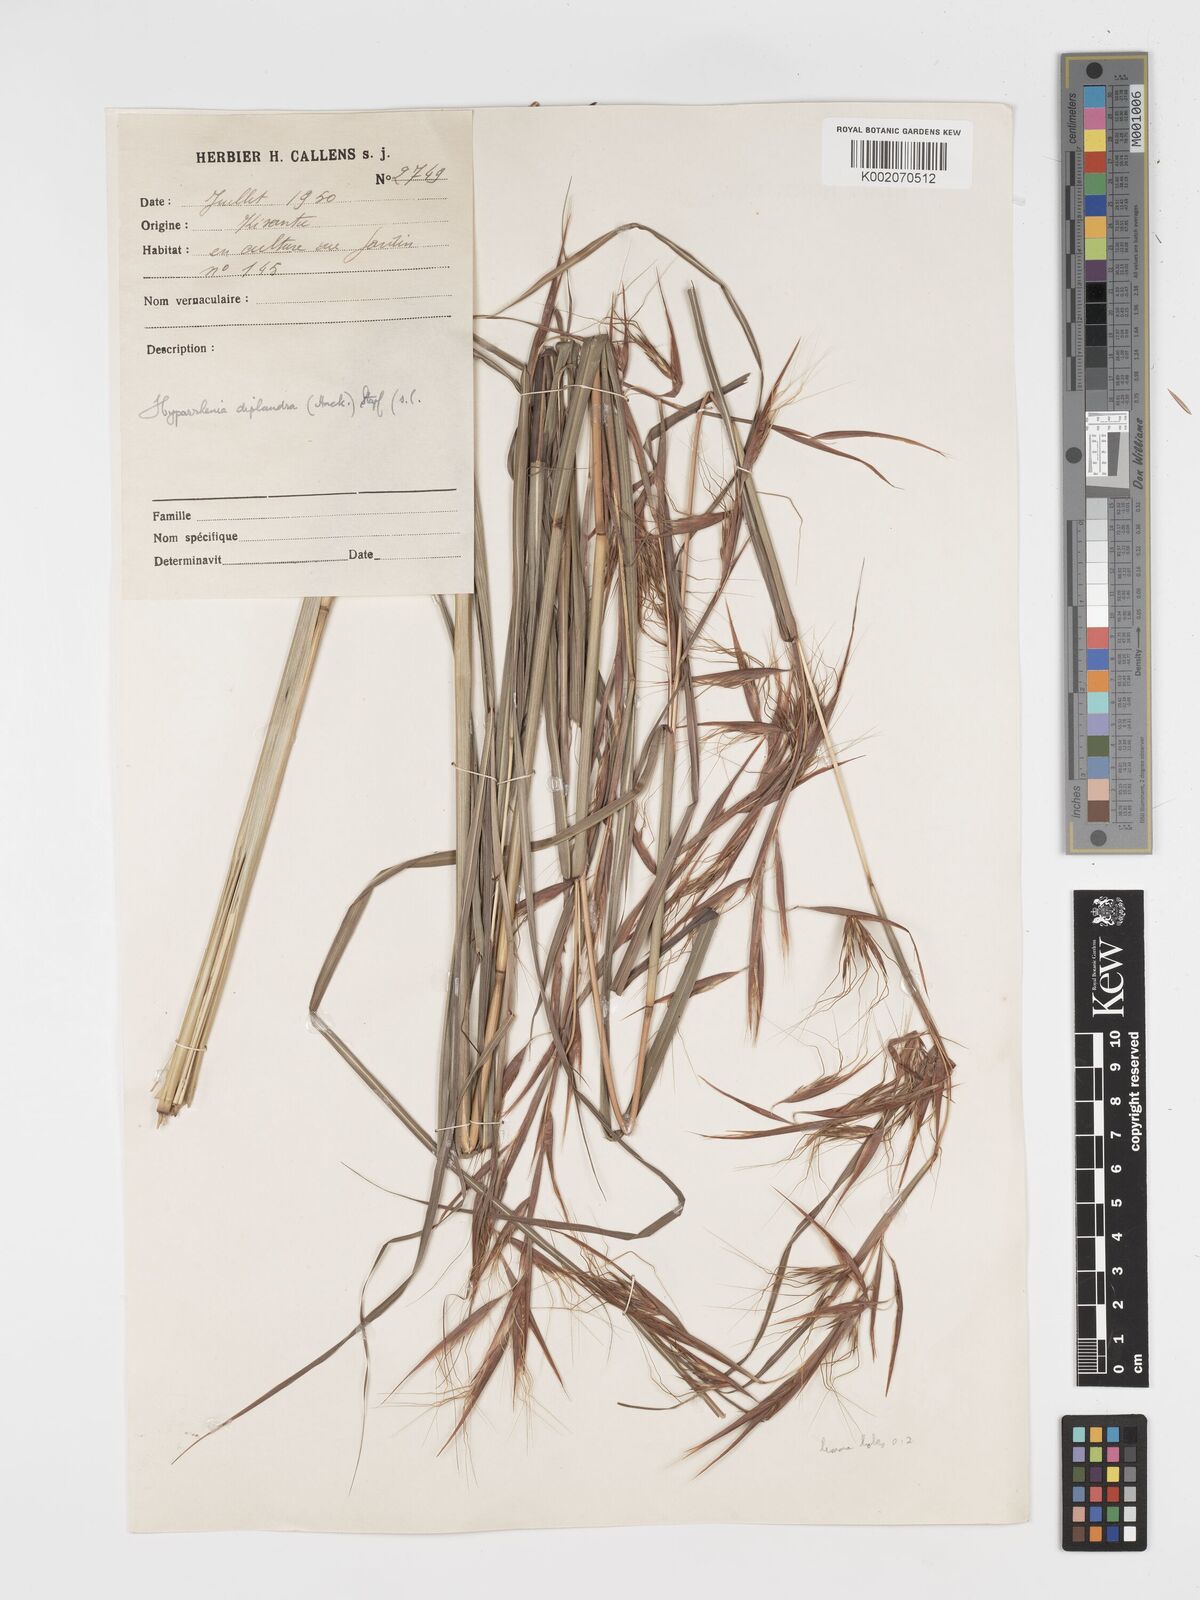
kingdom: Plantae
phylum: Tracheophyta
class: Liliopsida
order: Poales
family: Poaceae
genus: Hyparrhenia
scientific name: Hyparrhenia diplandra
